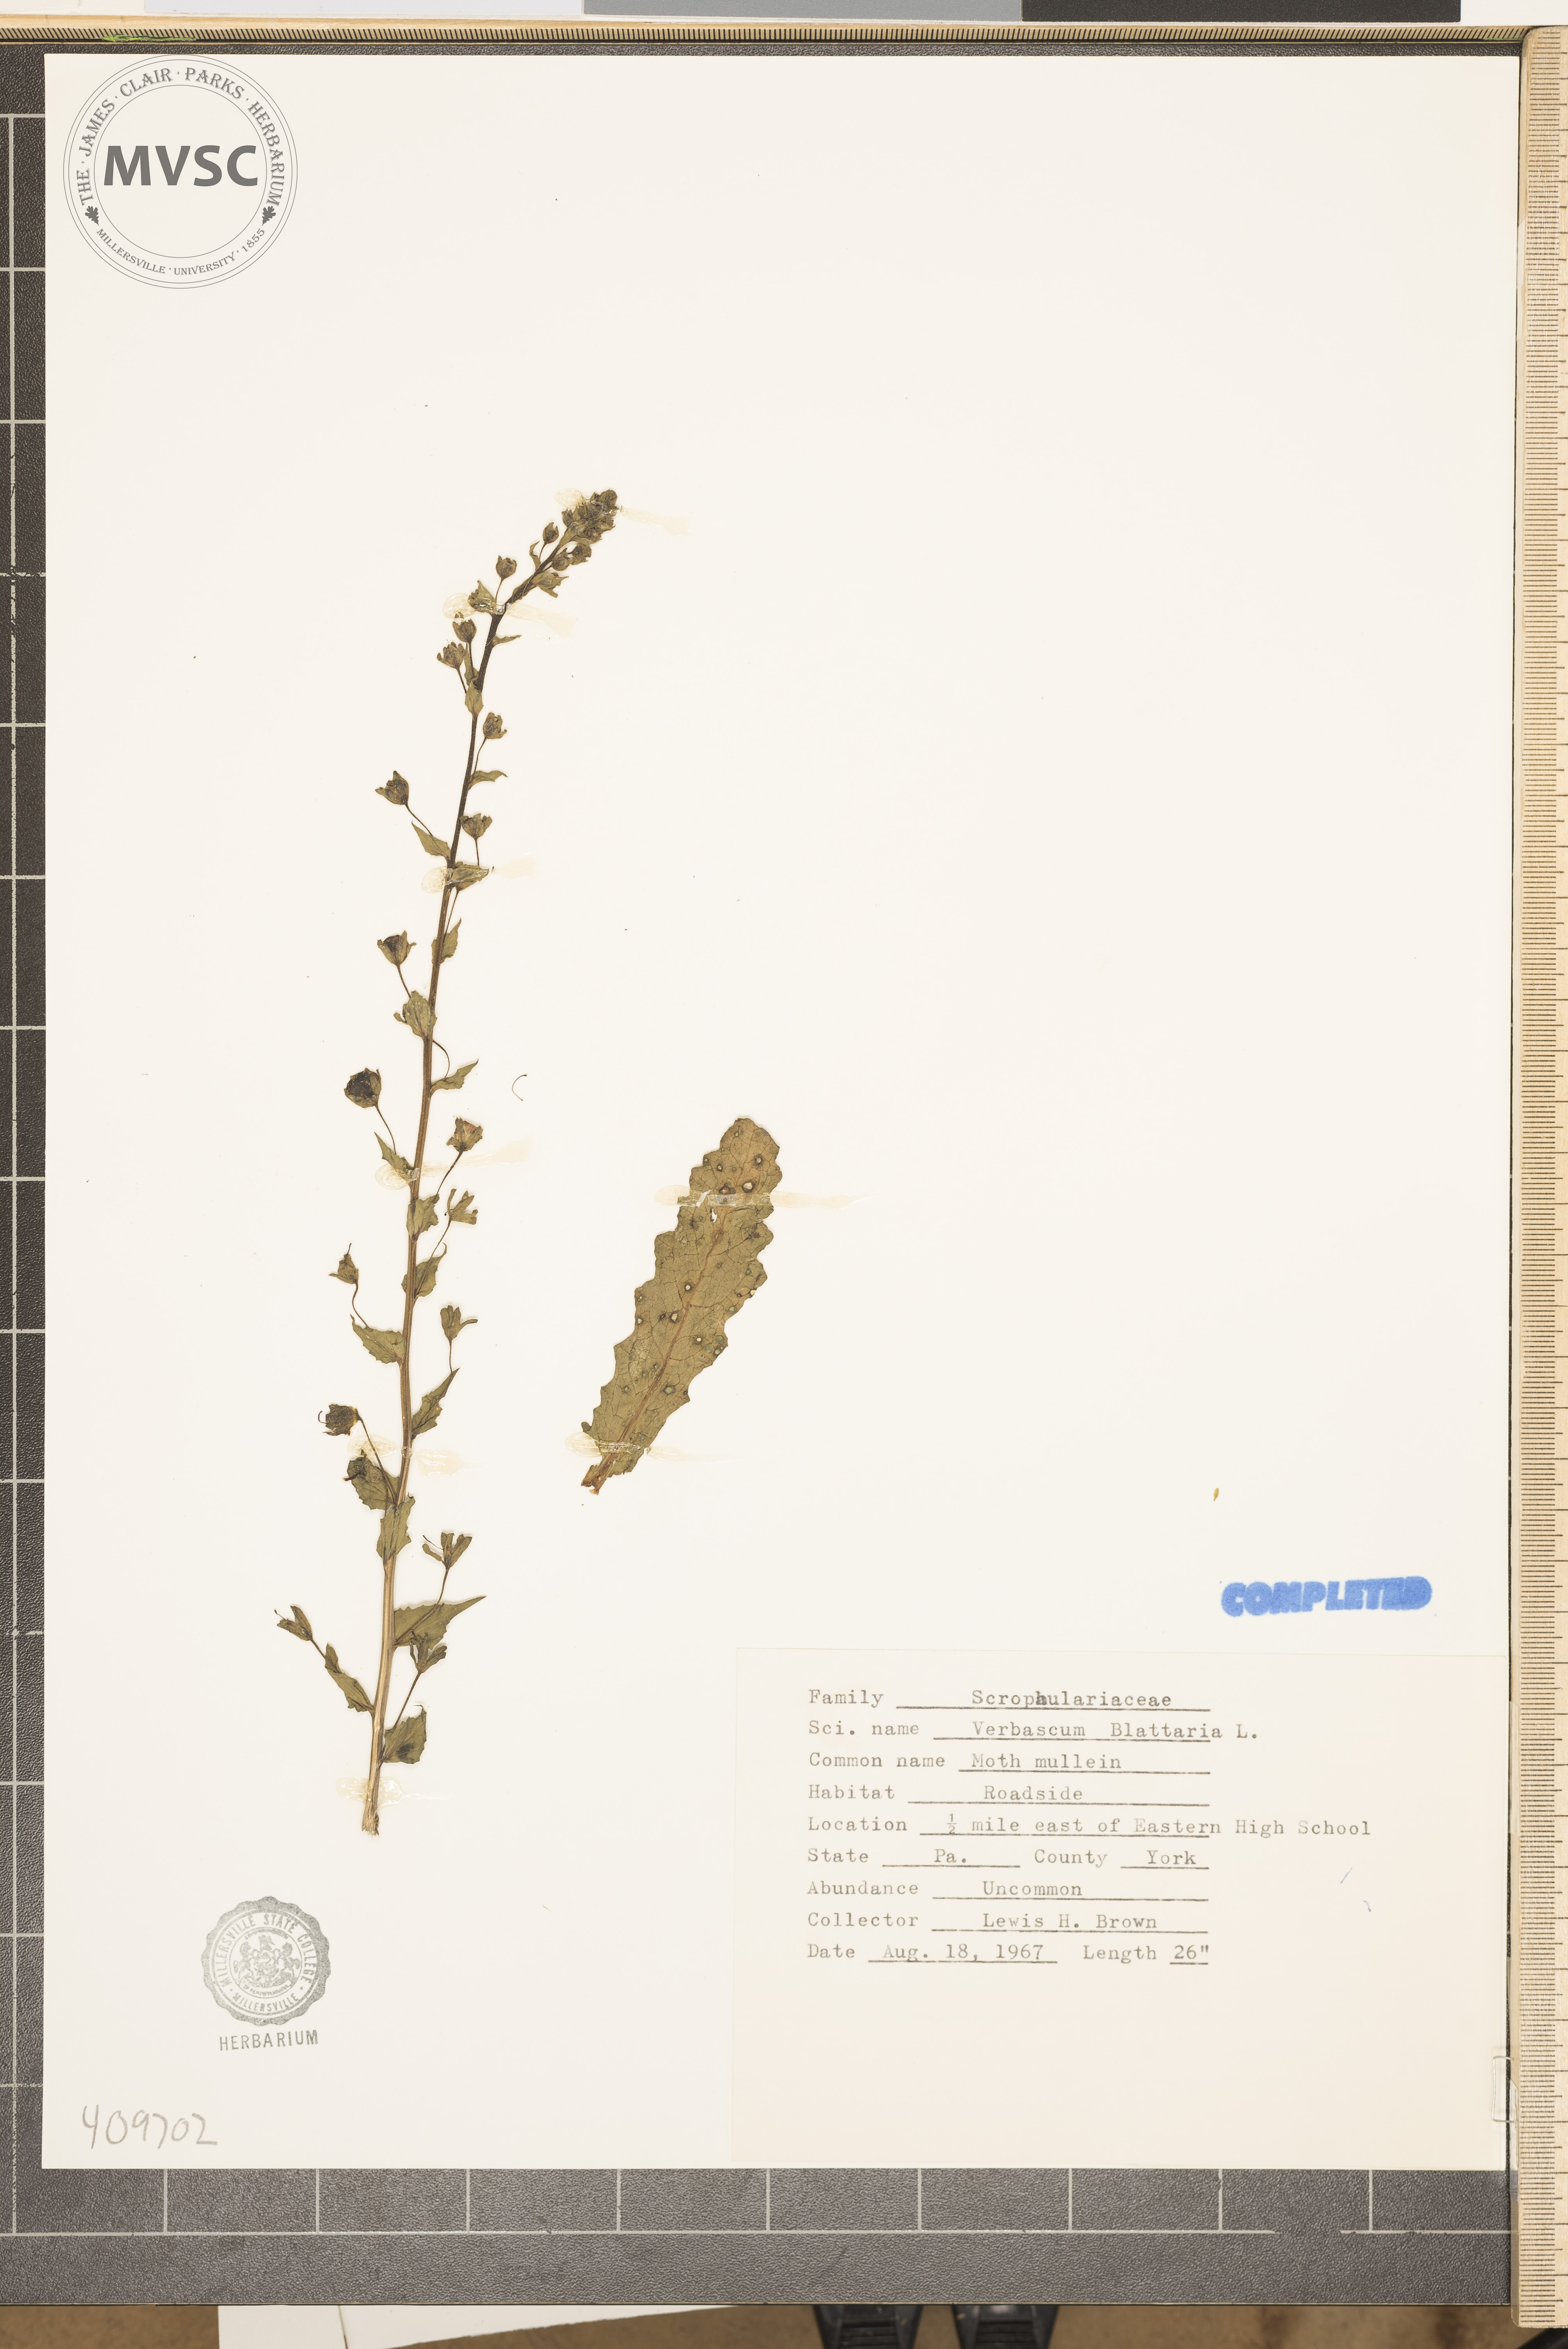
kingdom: Plantae
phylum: Tracheophyta
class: Magnoliopsida
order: Lamiales
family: Scrophulariaceae
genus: Verbascum
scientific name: Verbascum blattaria
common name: Moth mullein
